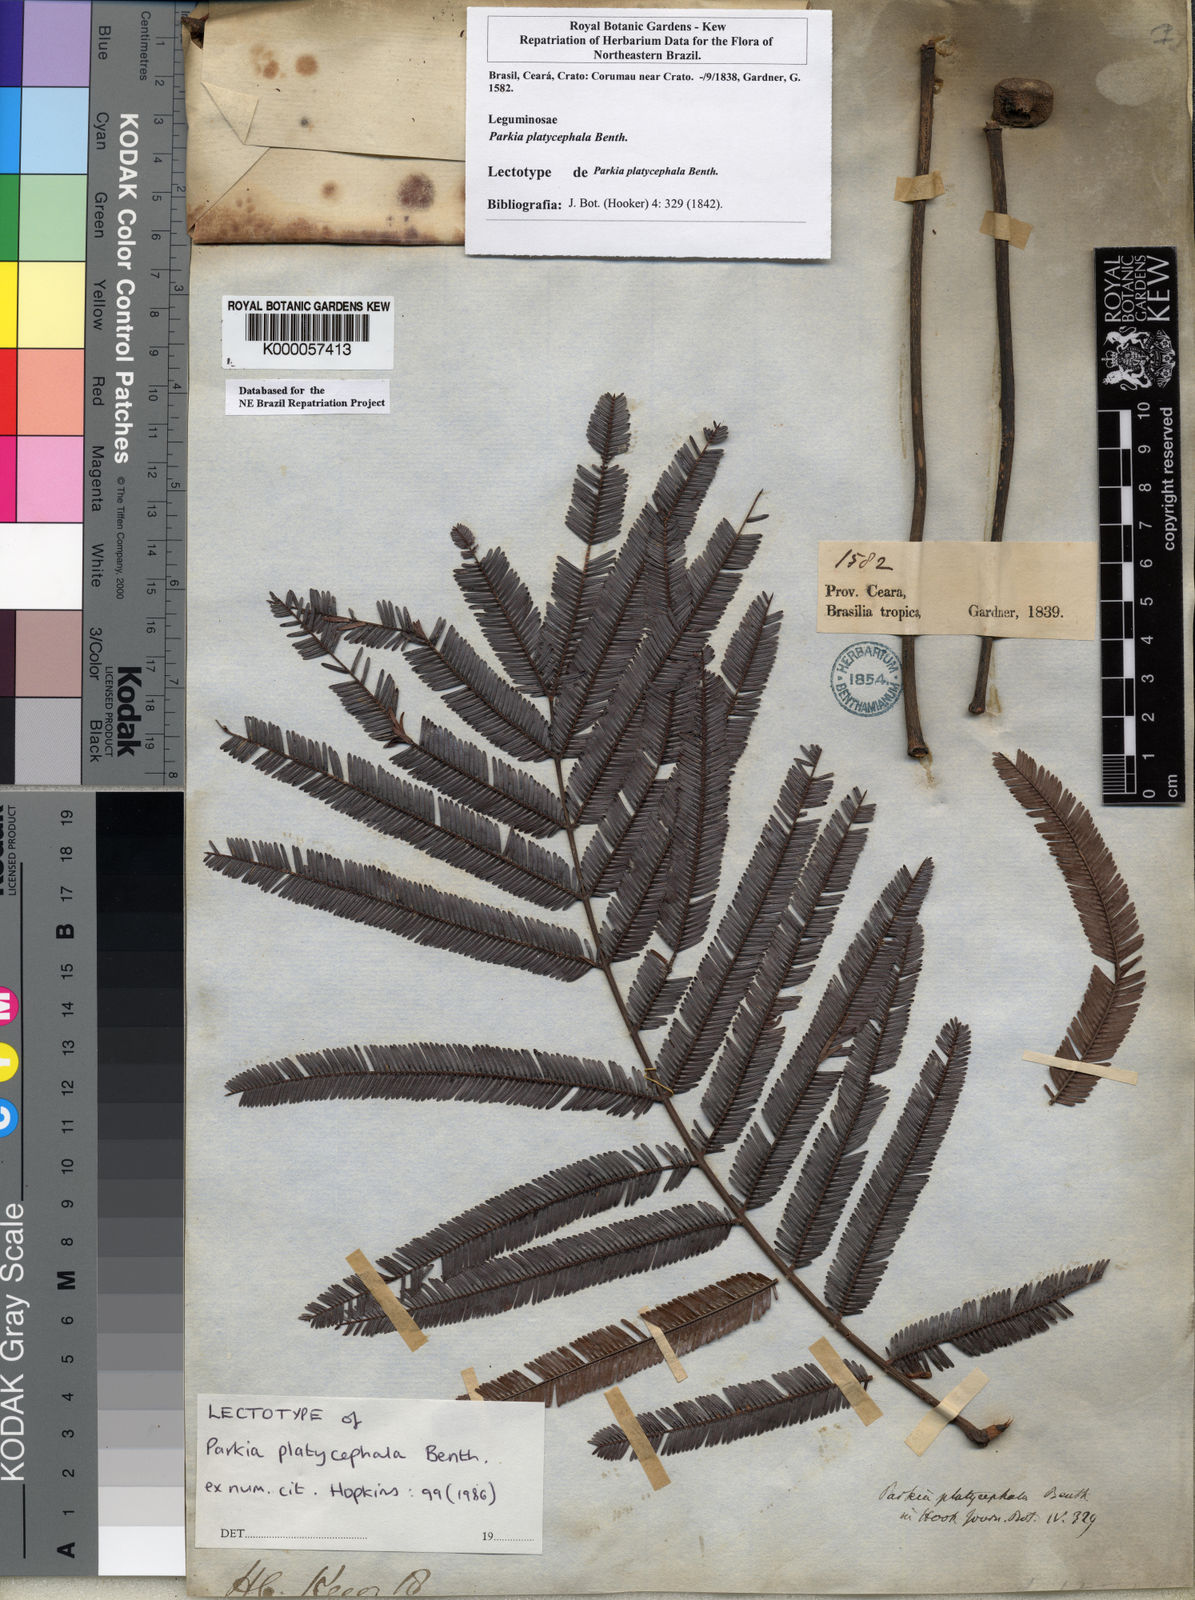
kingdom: Plantae
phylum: Tracheophyta
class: Magnoliopsida
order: Fabales
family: Fabaceae
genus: Parkia
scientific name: Parkia platycephala
